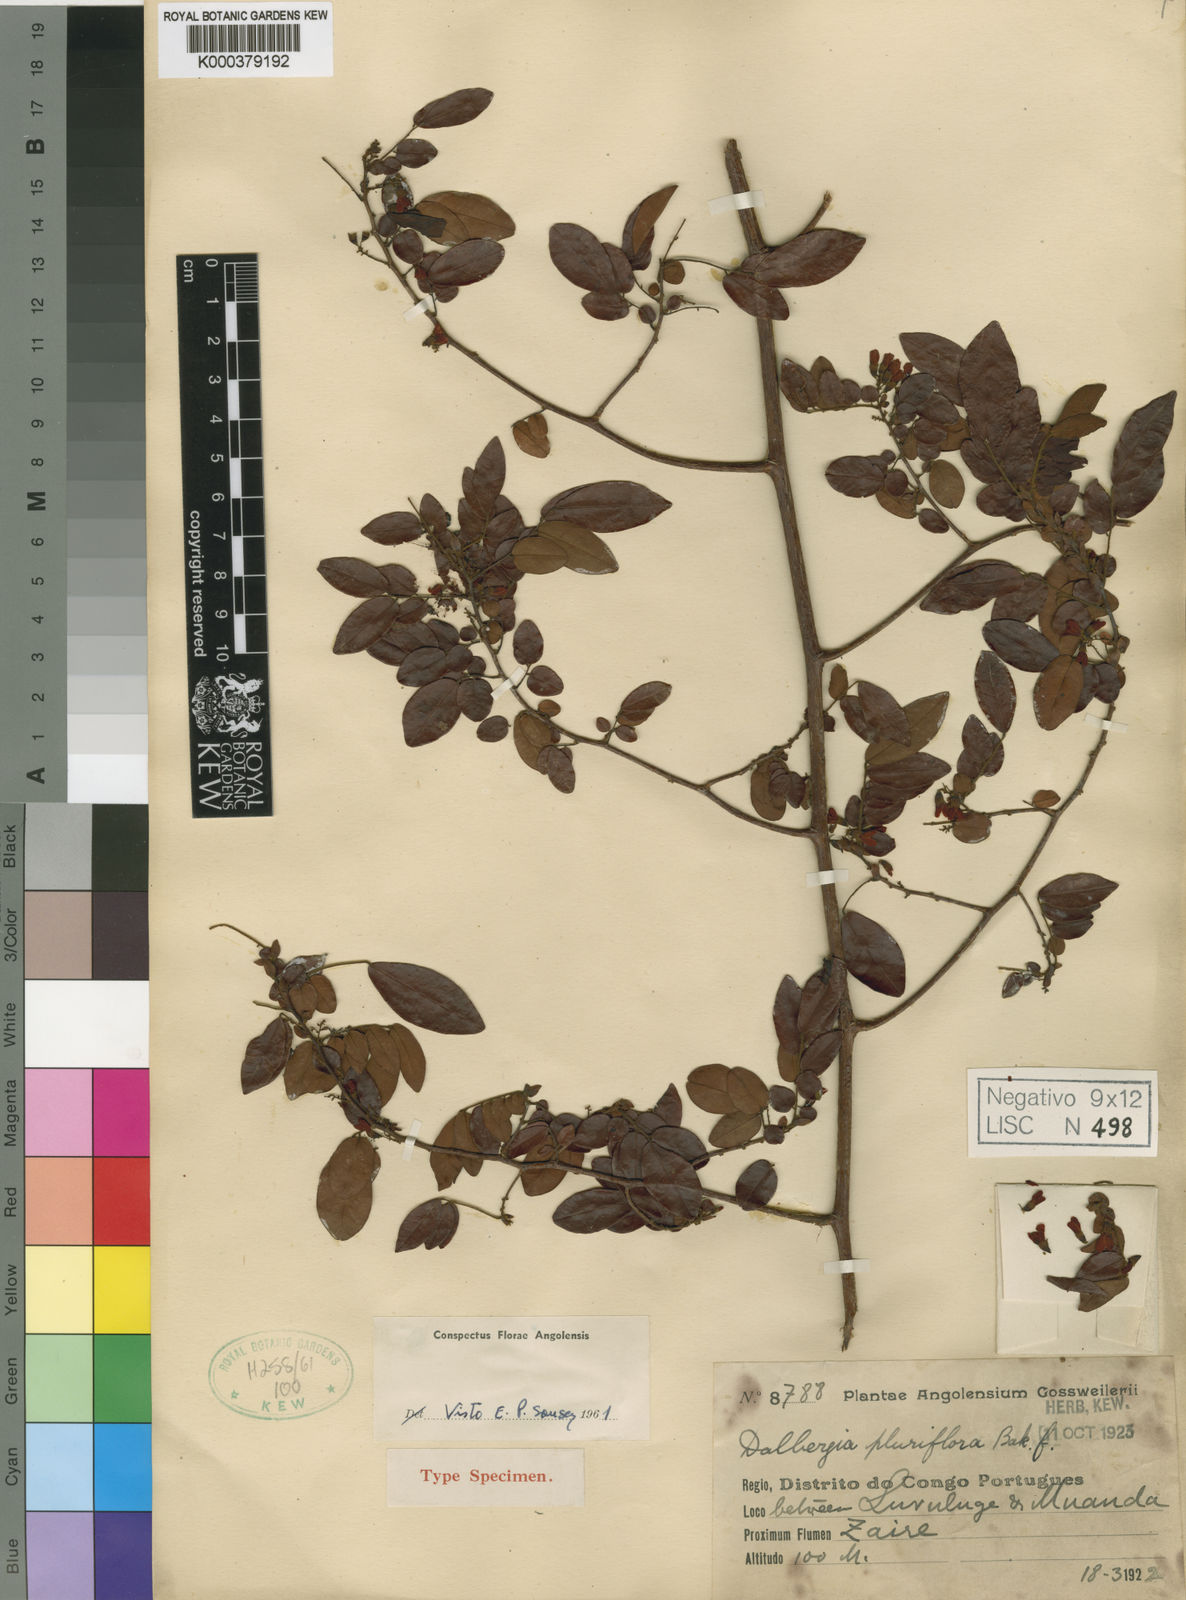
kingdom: Plantae
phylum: Tracheophyta
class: Magnoliopsida
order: Fabales
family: Fabaceae
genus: Dalbergia
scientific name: Dalbergia pluriflora
